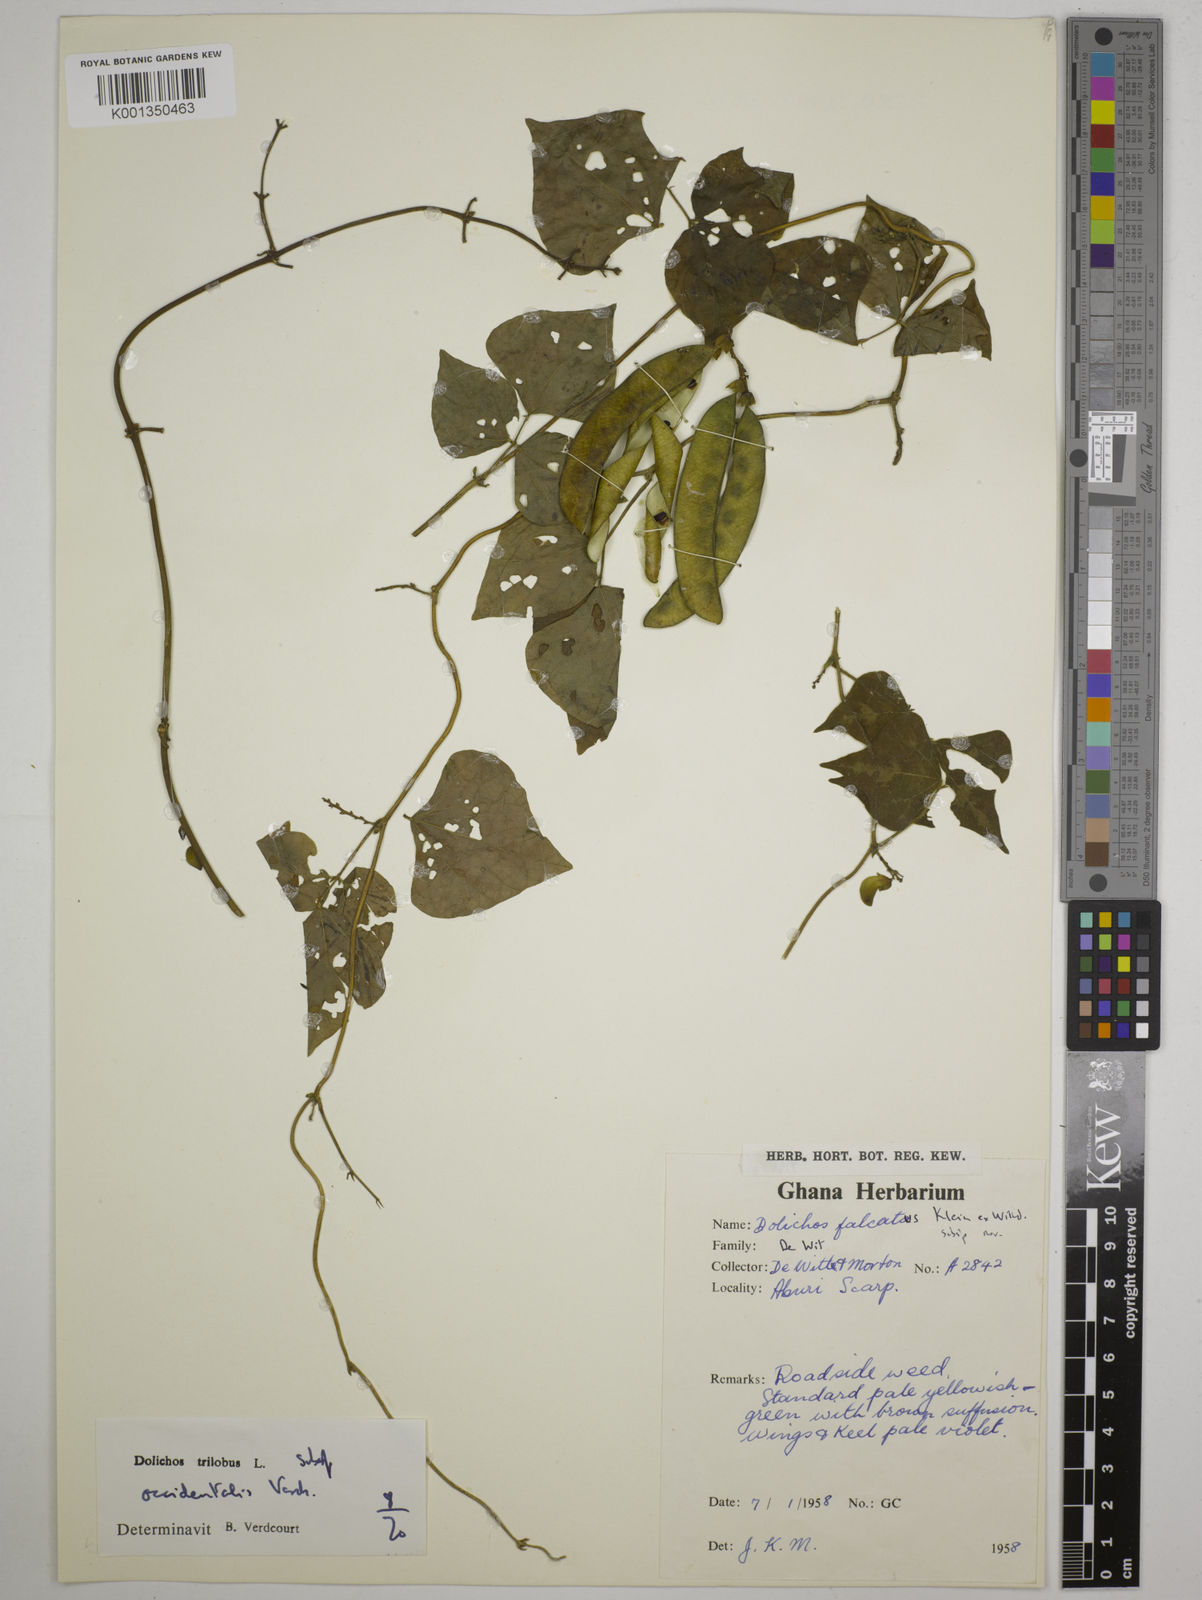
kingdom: Plantae
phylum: Tracheophyta
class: Magnoliopsida
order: Fabales
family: Fabaceae
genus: Dolichos
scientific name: Dolichos
